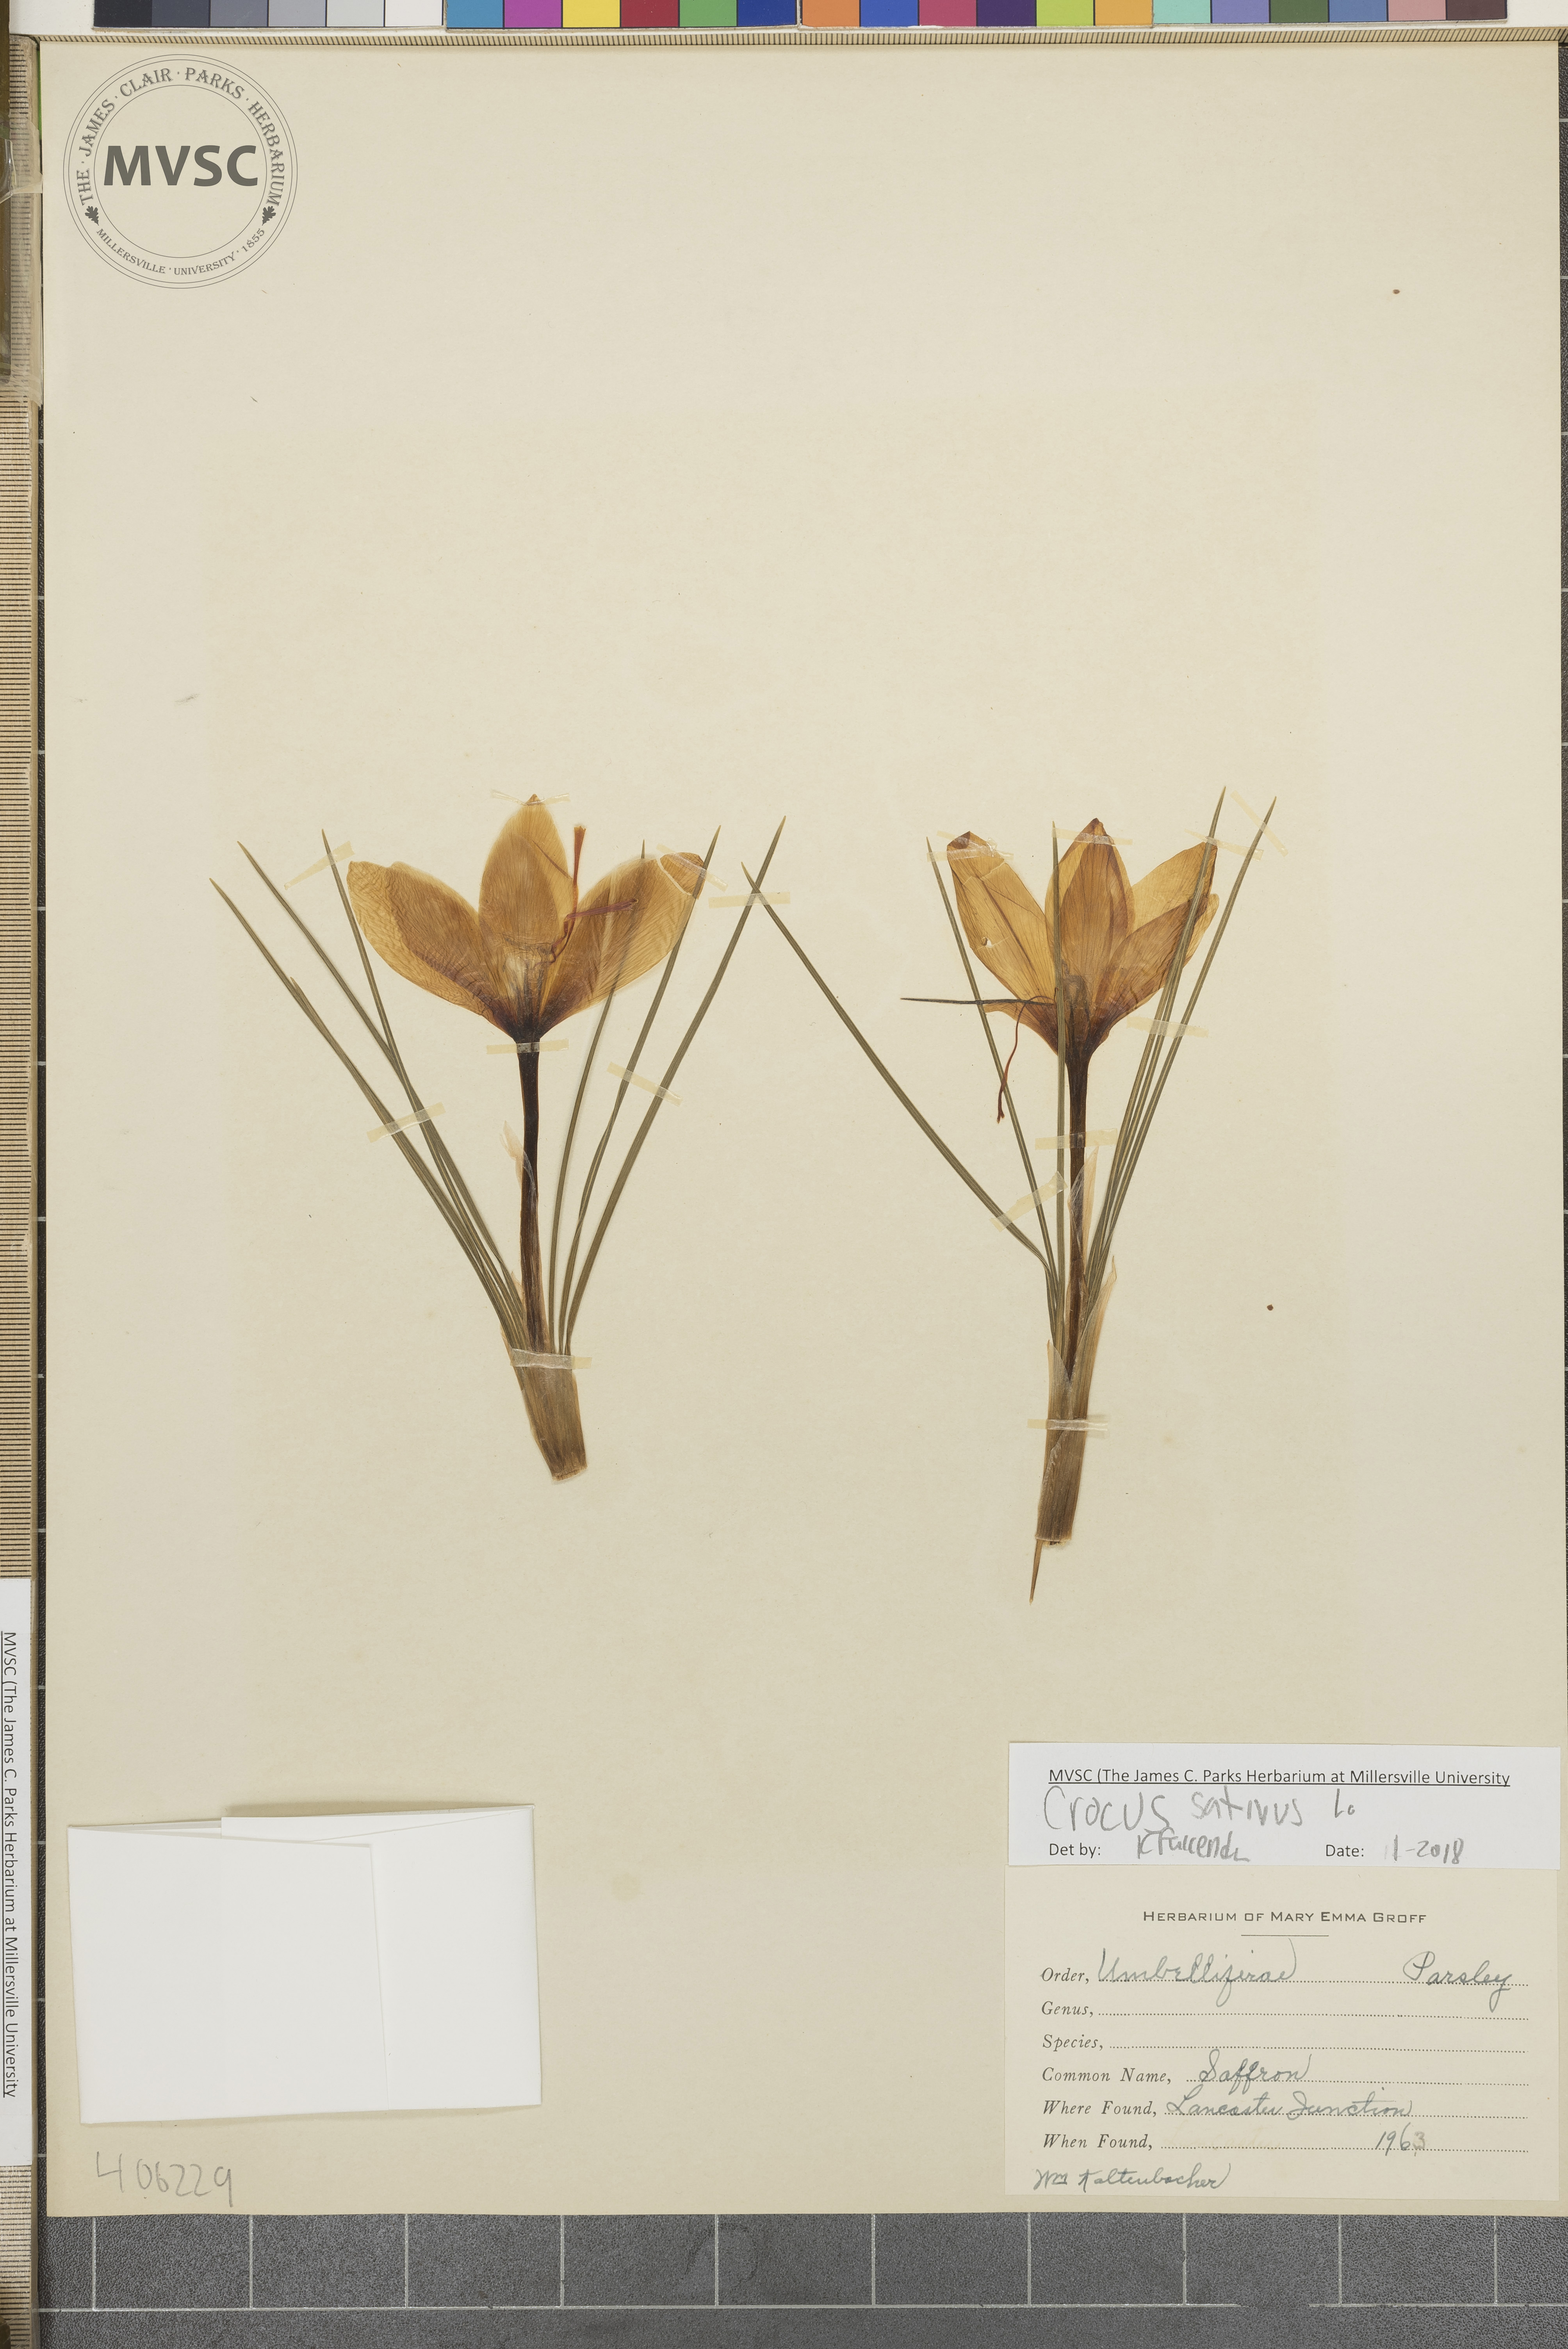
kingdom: Plantae
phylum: Tracheophyta
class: Liliopsida
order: Asparagales
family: Iridaceae
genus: Crocus
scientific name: Crocus sativus
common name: Saffron
